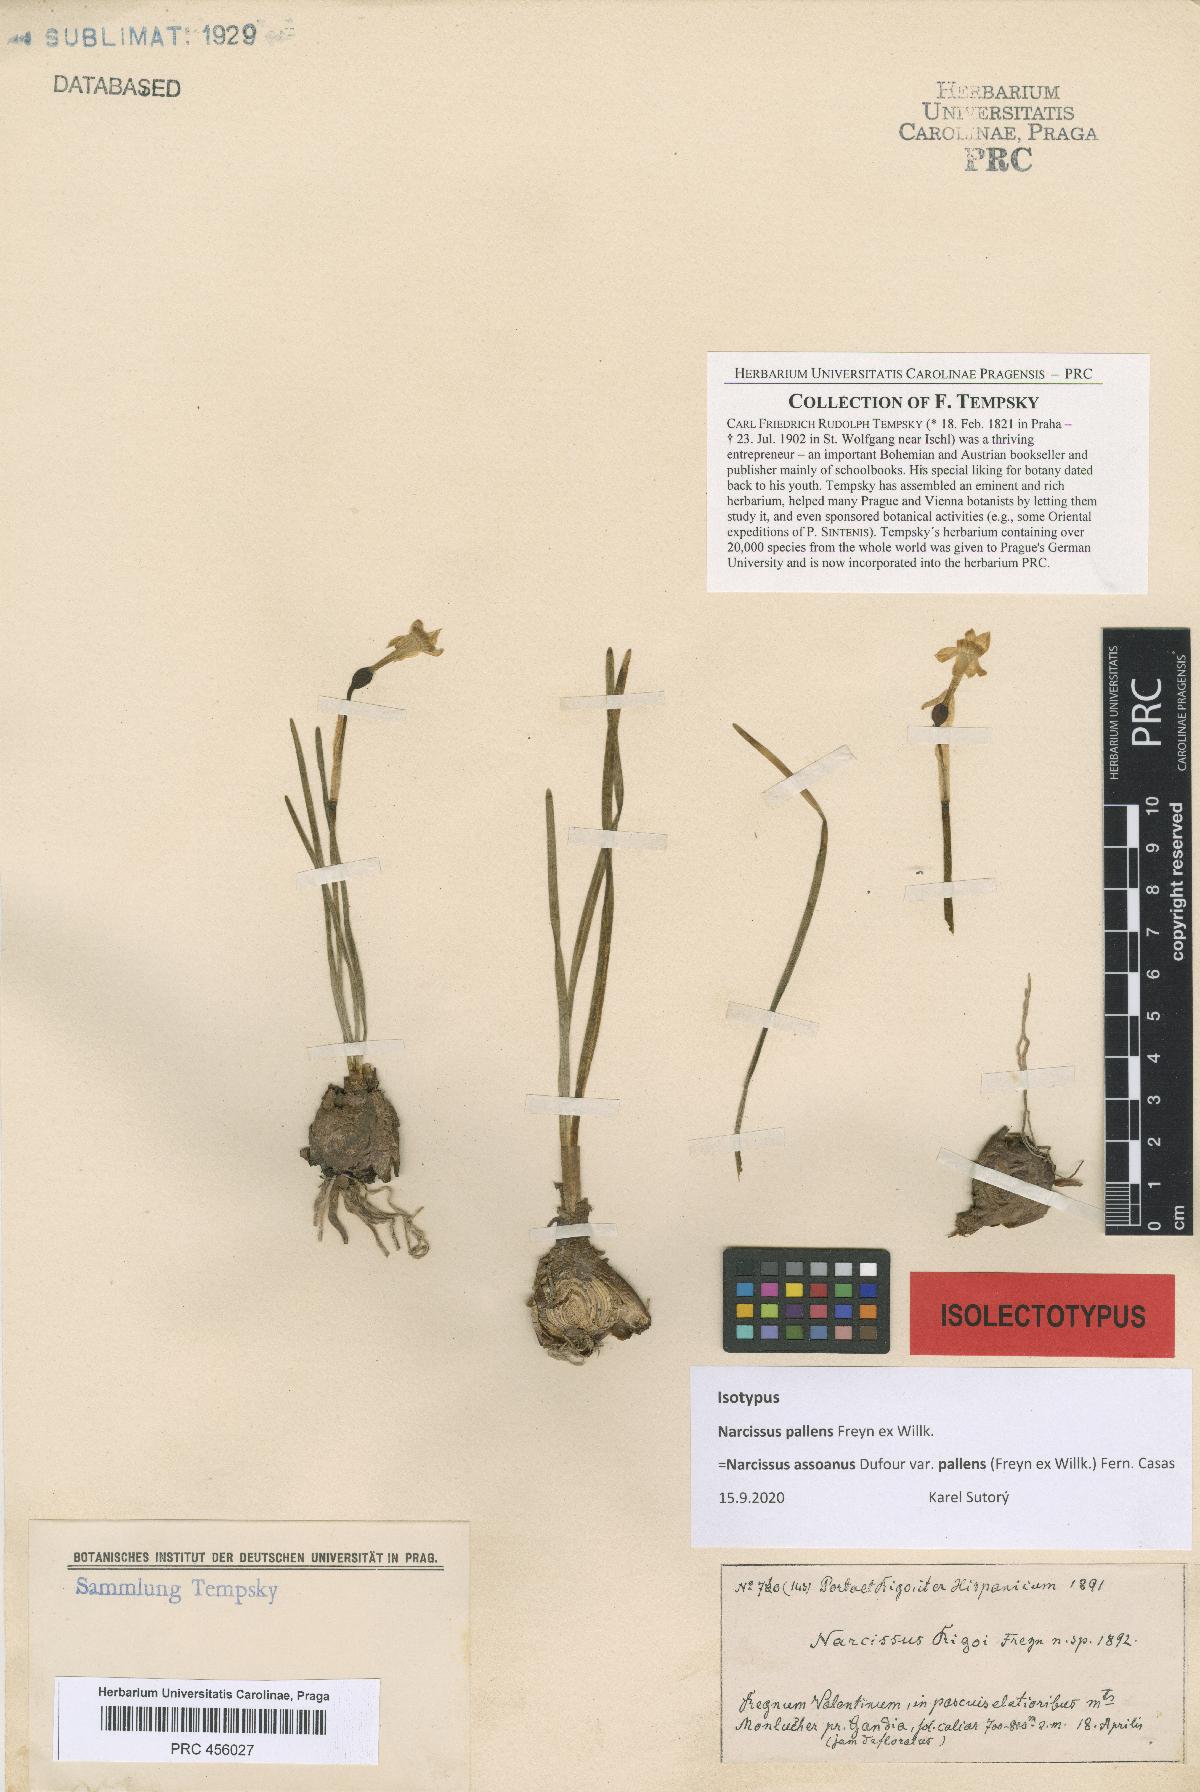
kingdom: Plantae
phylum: Tracheophyta
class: Liliopsida
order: Asparagales
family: Amaryllidaceae
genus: Narcissus
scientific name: Narcissus dubius
